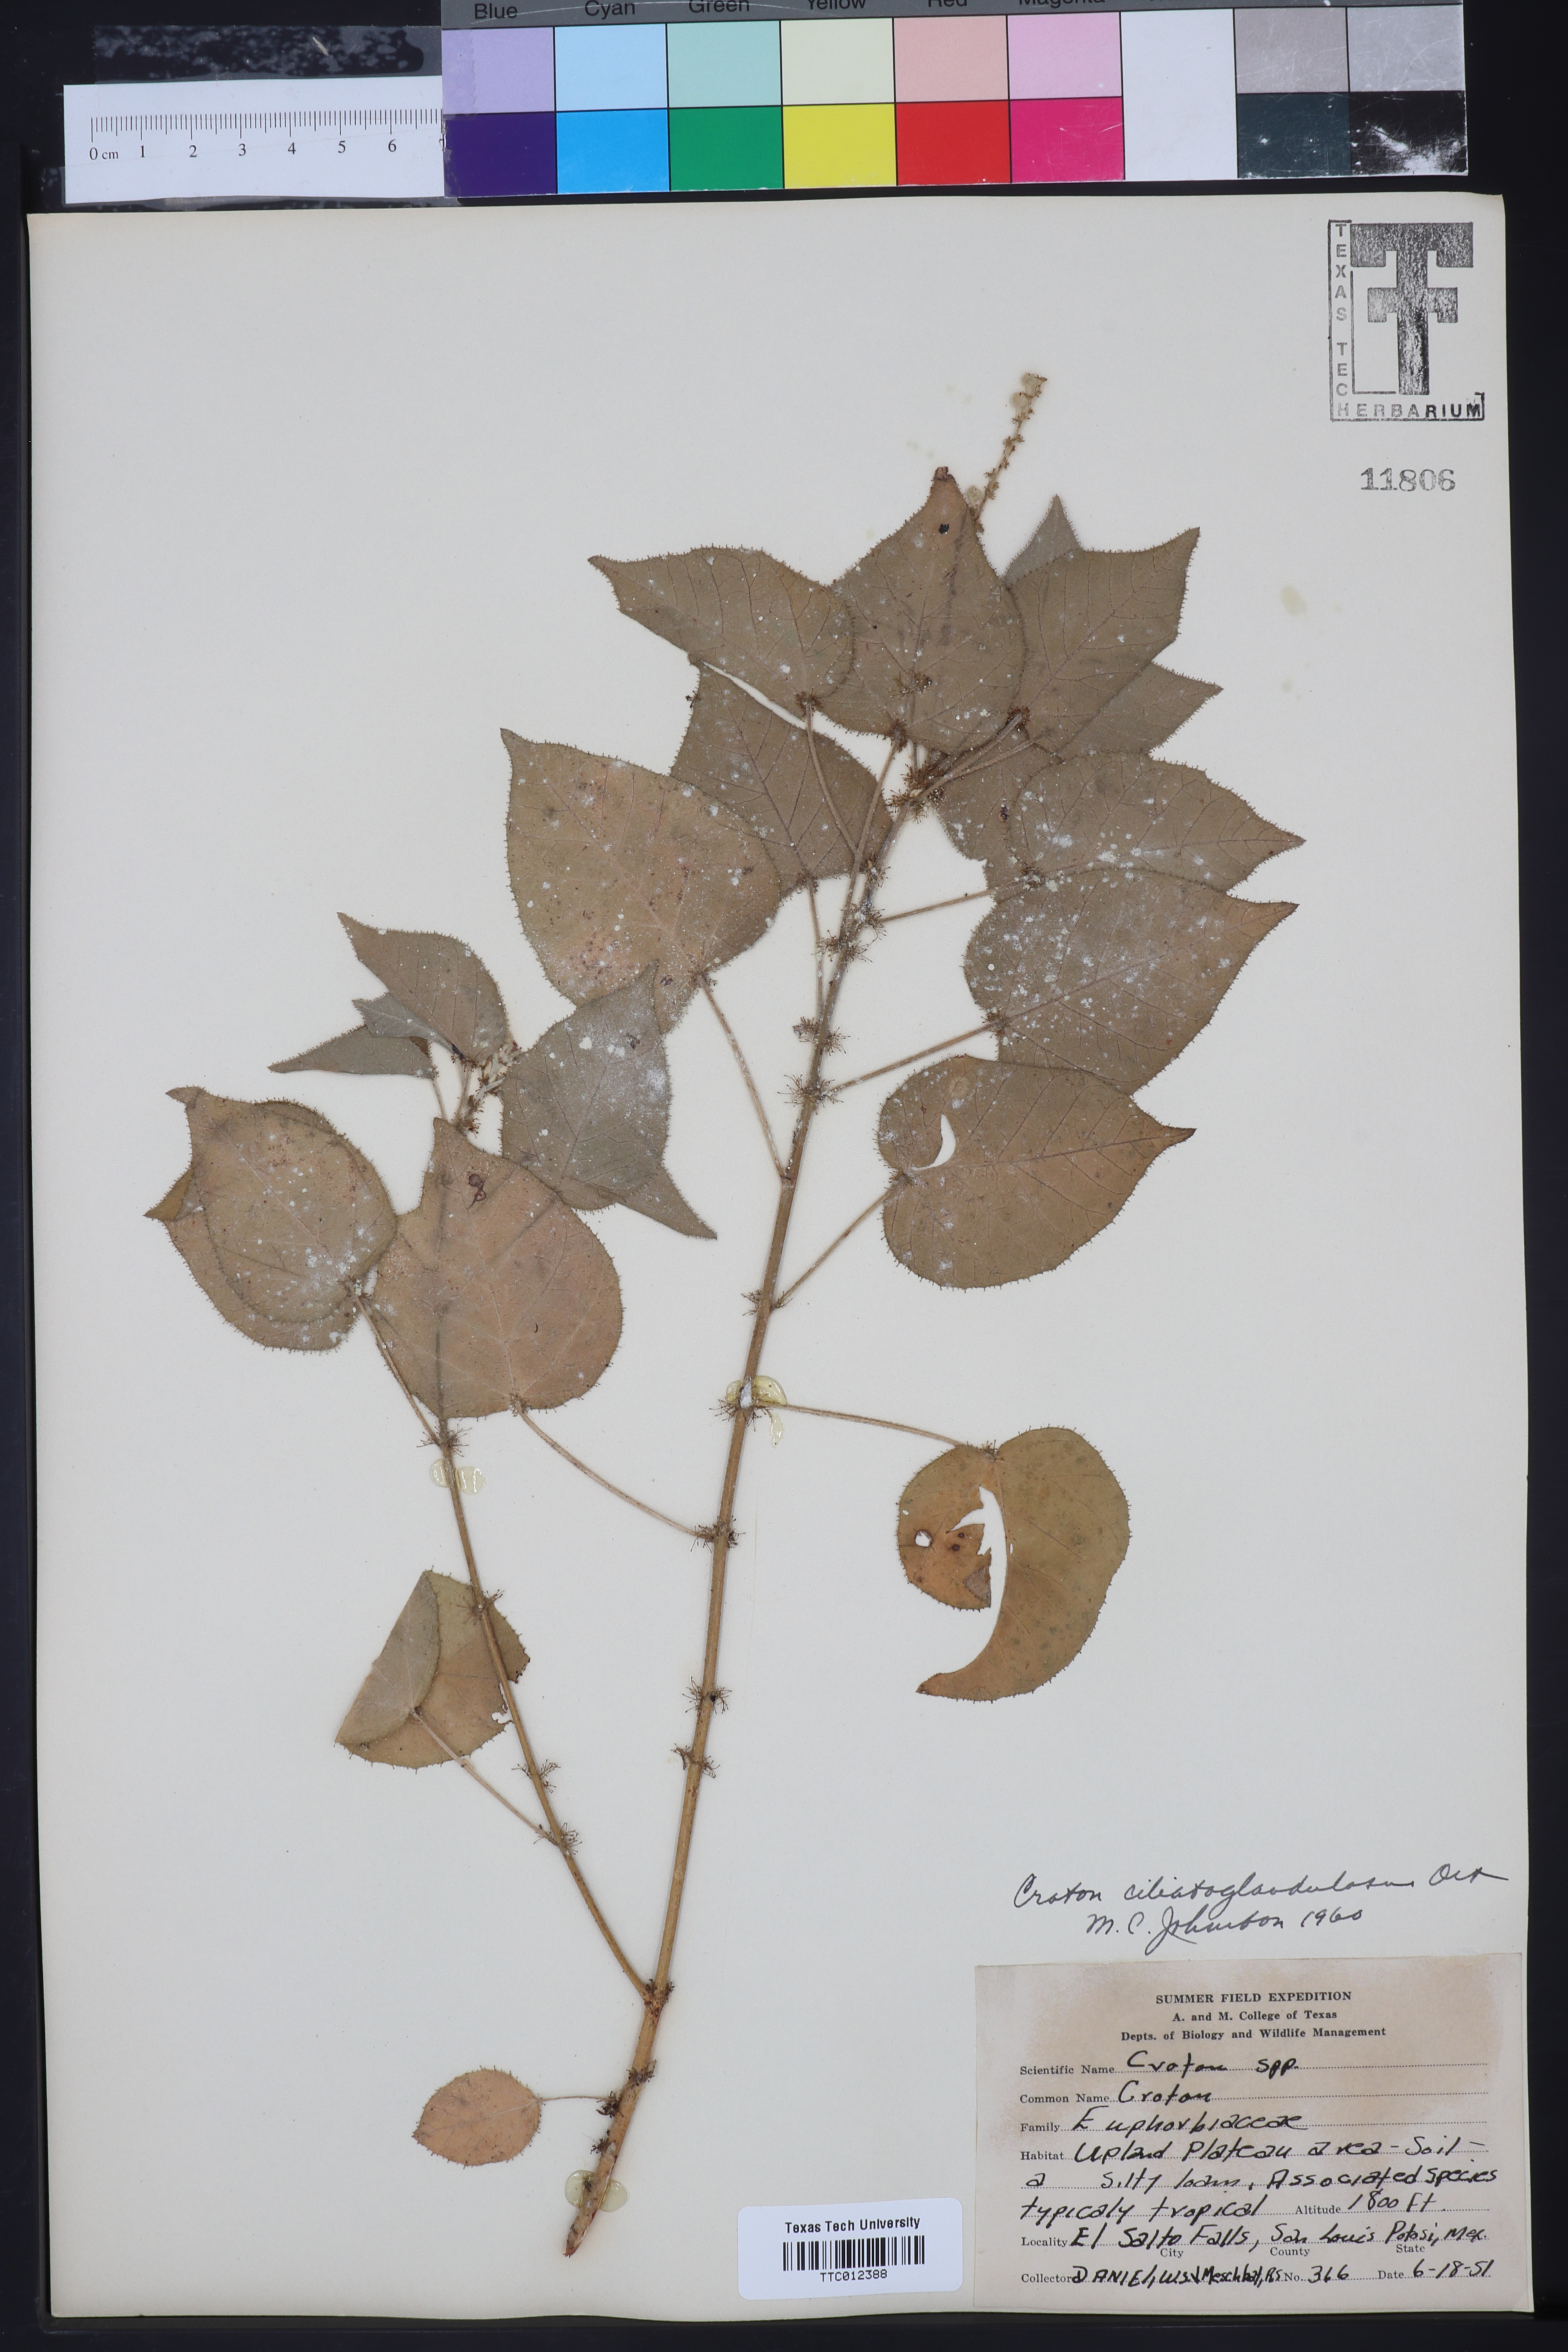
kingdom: Plantae
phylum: Tracheophyta
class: Magnoliopsida
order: Malpighiales
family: Euphorbiaceae
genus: Croton
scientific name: Croton ciliatoglandulifer
